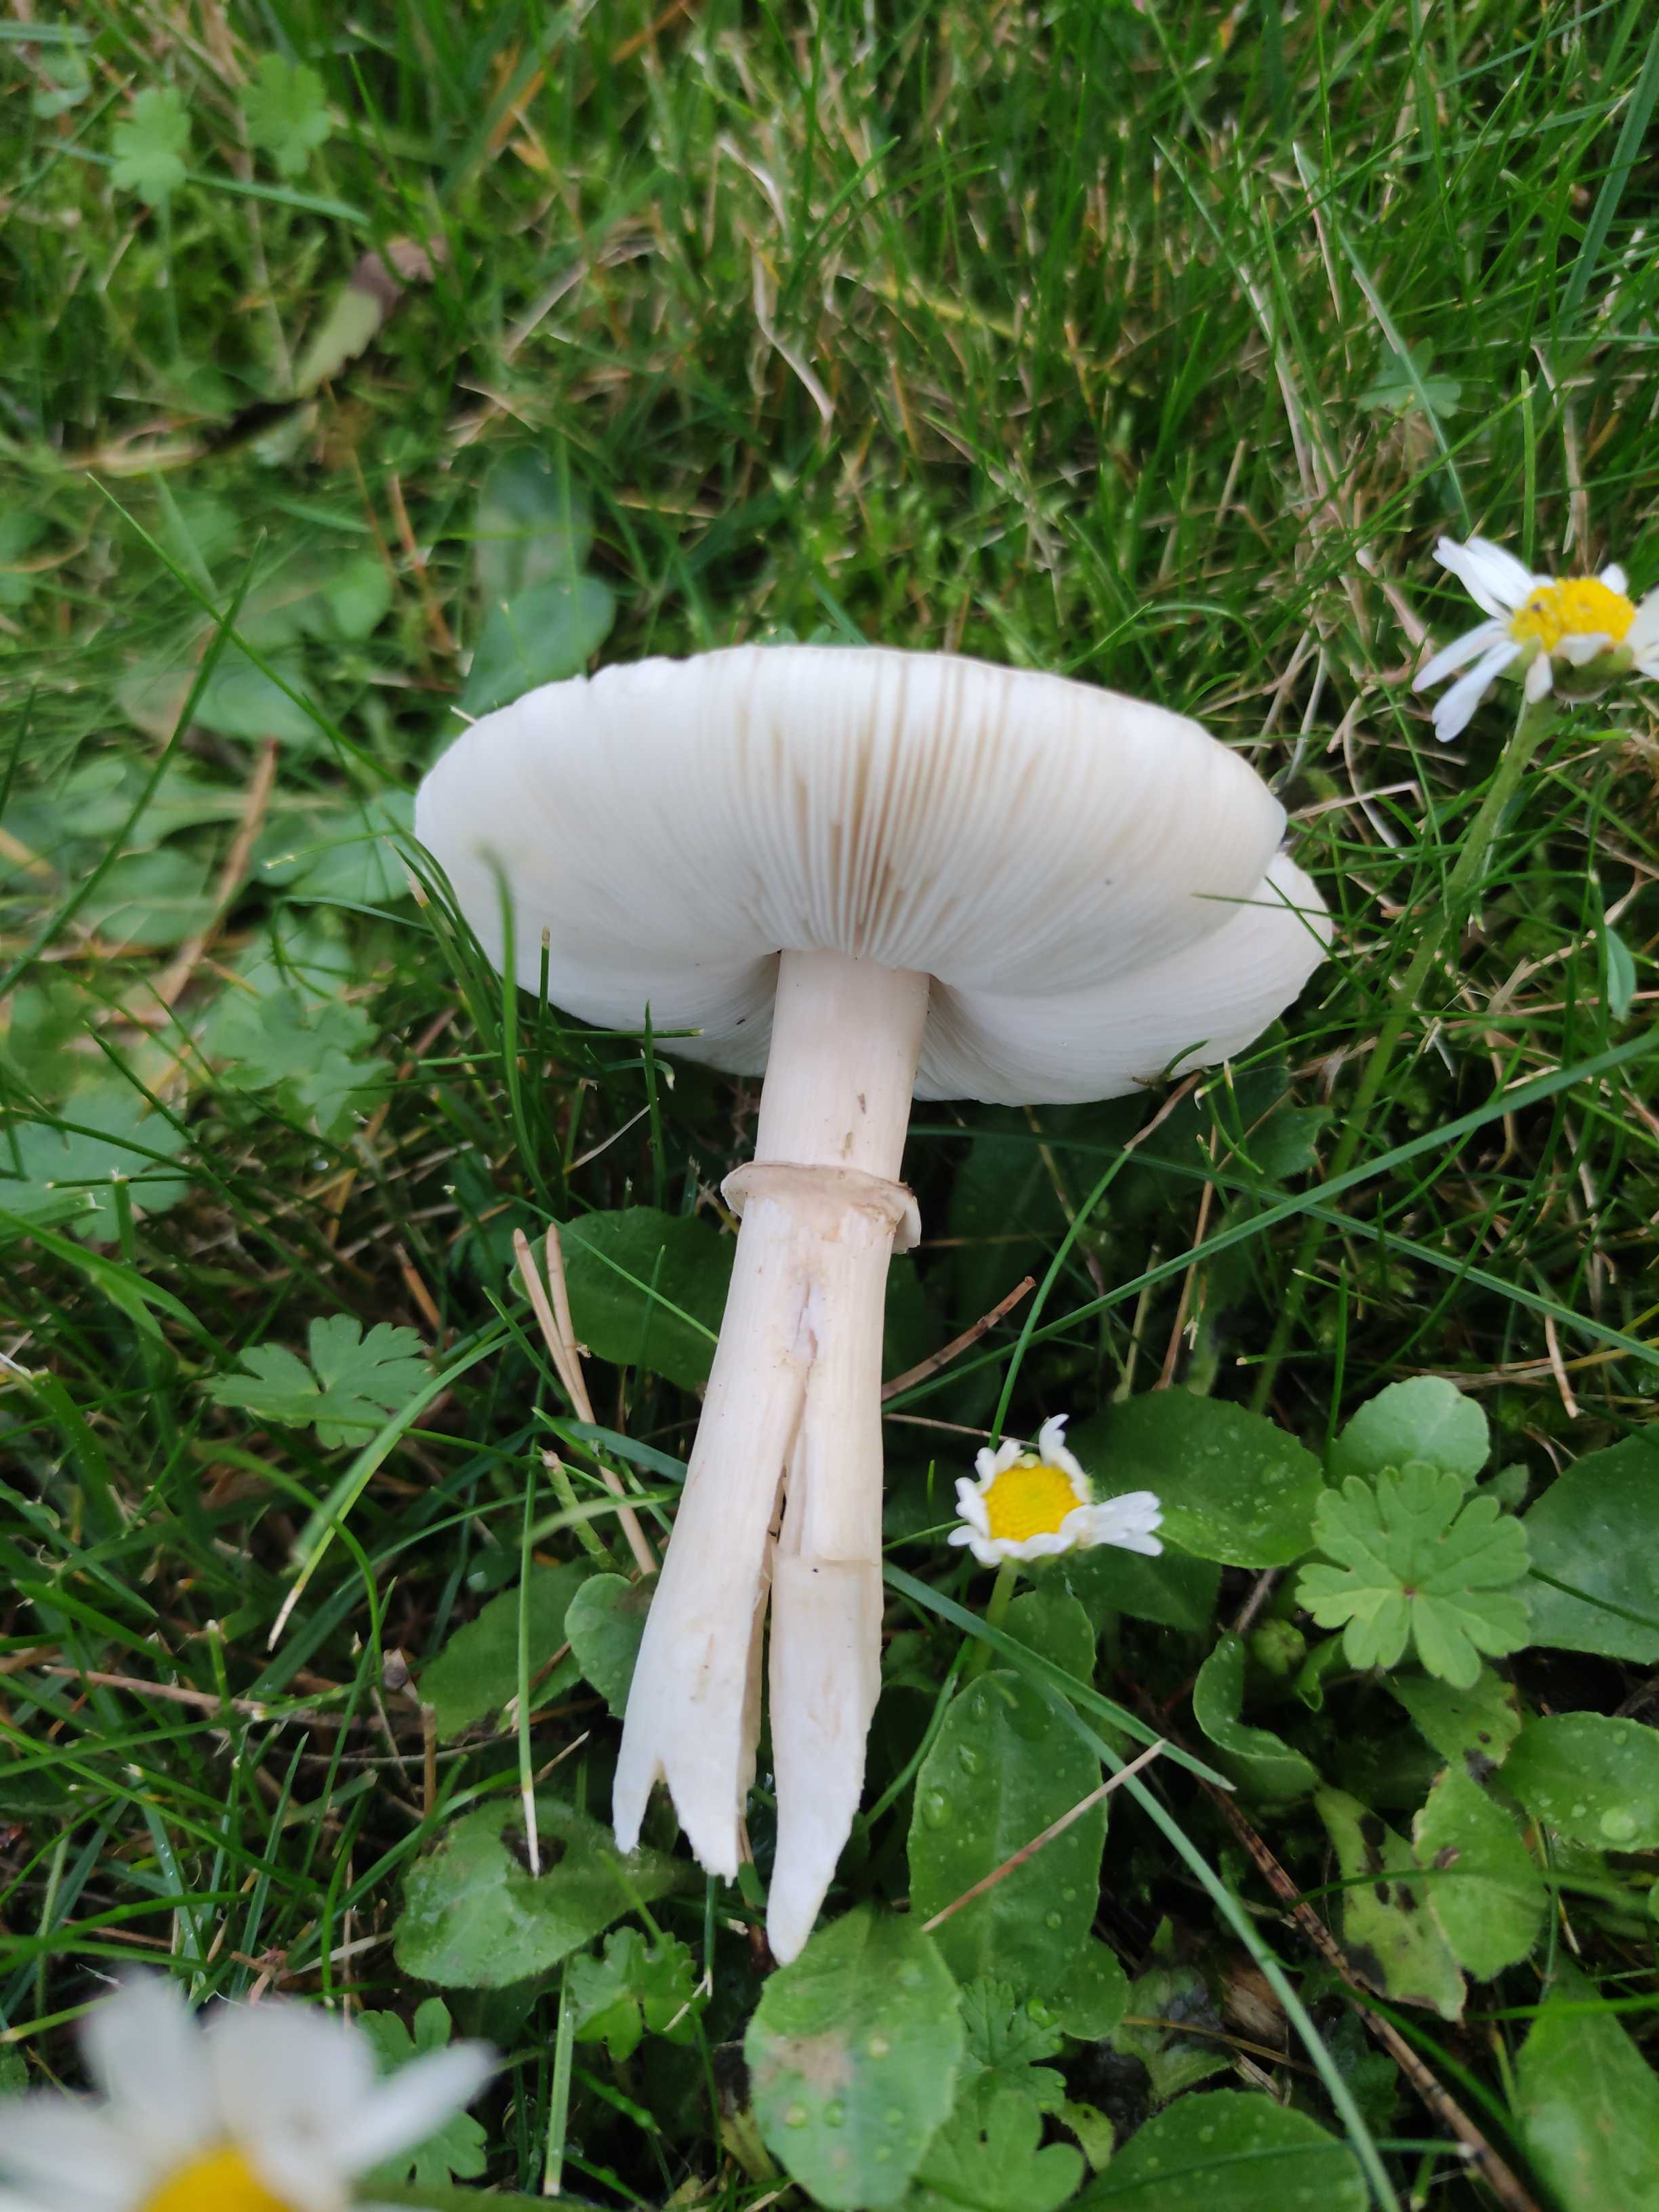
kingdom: Fungi
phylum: Basidiomycota
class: Agaricomycetes
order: Agaricales
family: Agaricaceae
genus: Leucoagaricus
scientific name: Leucoagaricus leucothites
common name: rosabladet silkehat
